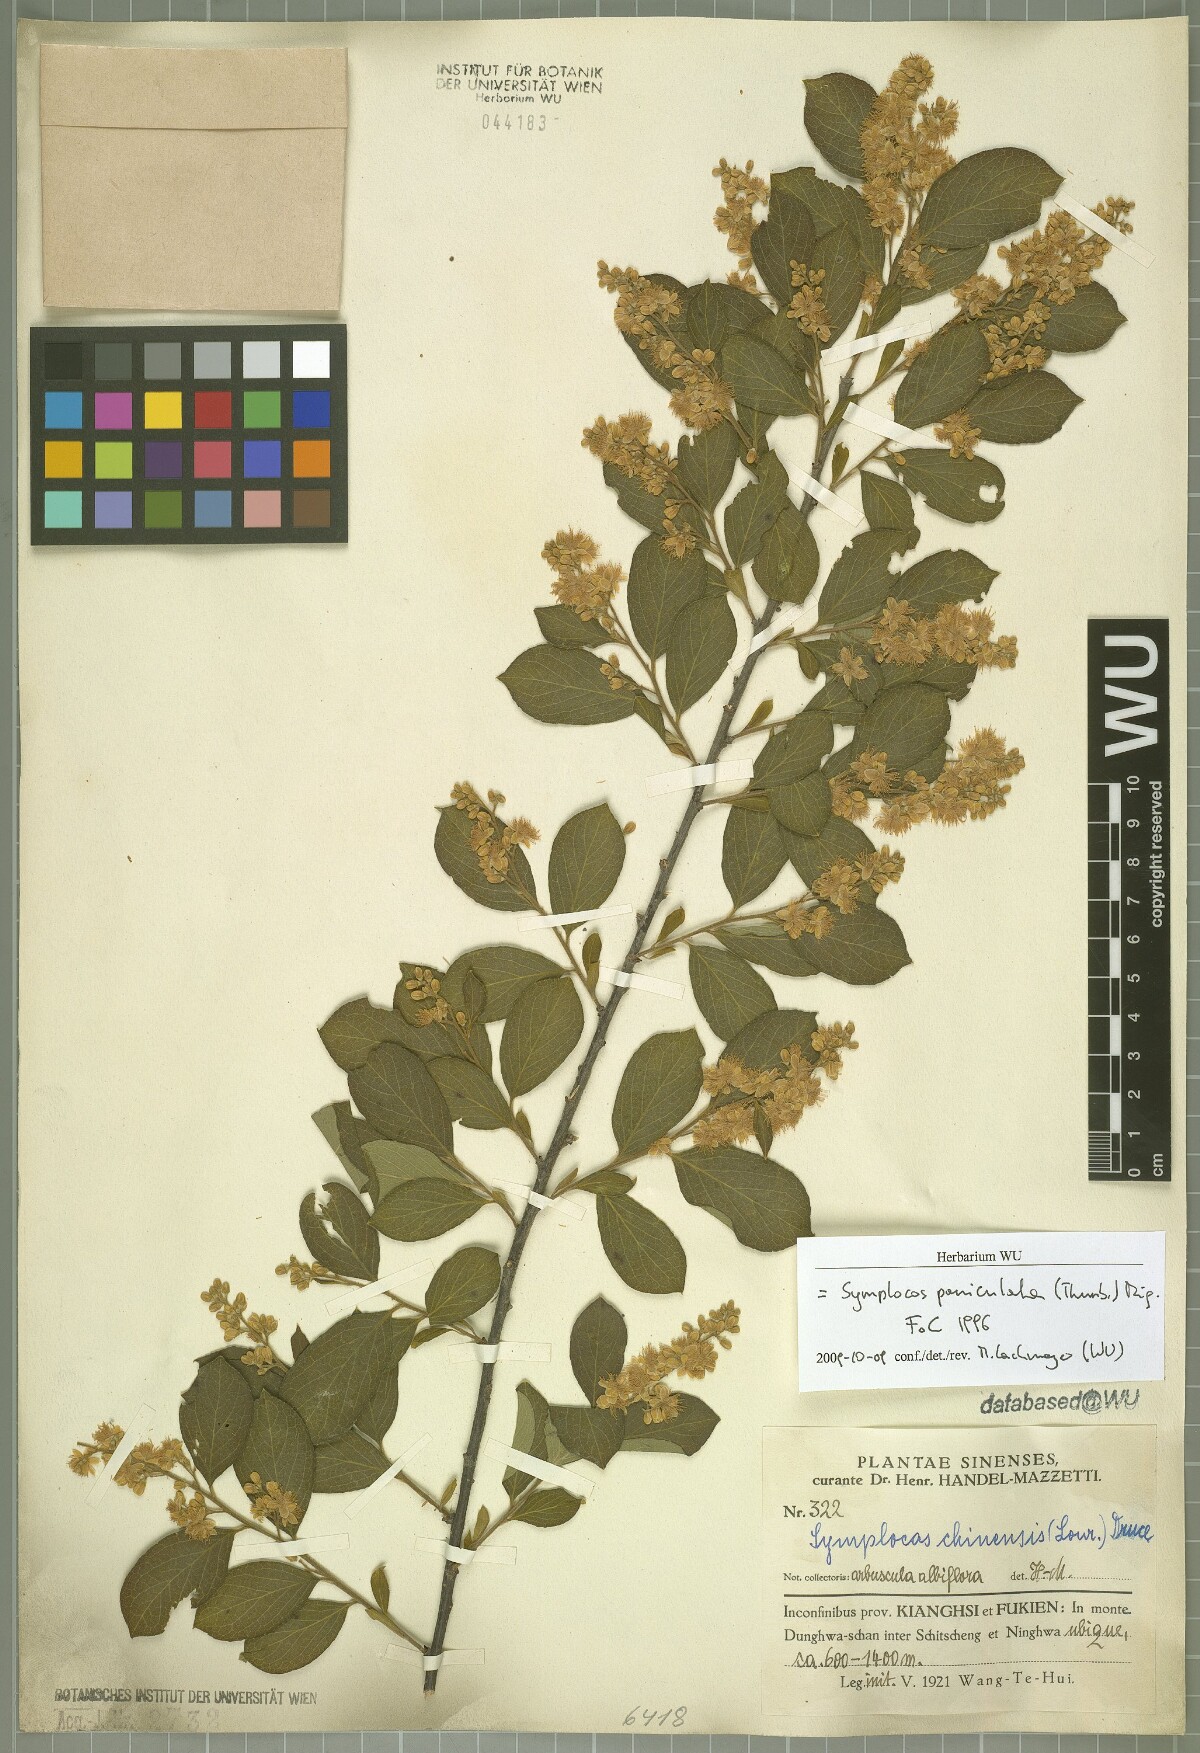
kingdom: Plantae
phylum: Tracheophyta
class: Magnoliopsida
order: Ericales
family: Symplocaceae
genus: Symplocos
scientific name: Symplocos paniculata
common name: Sapphire-berry
